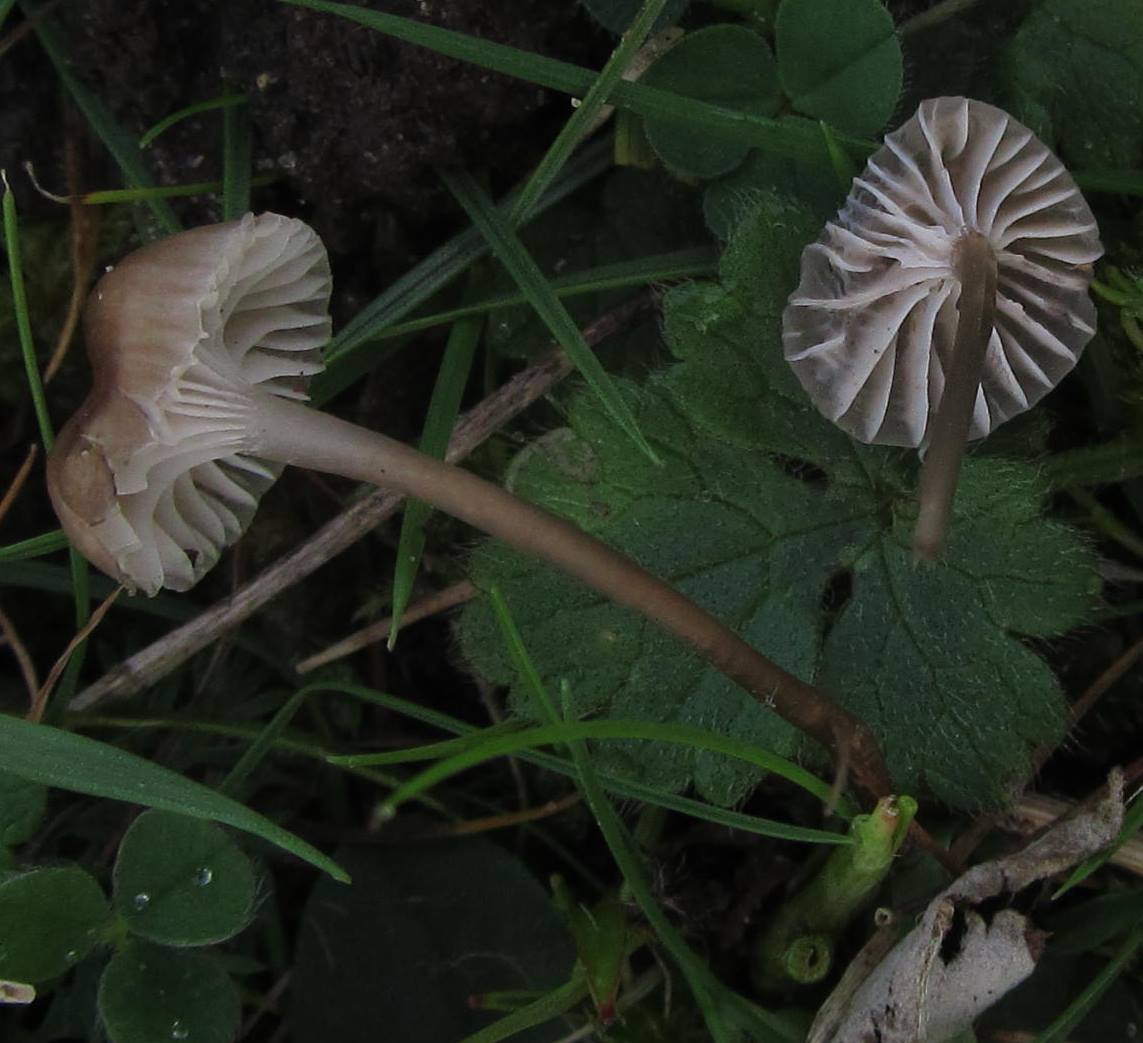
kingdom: Fungi
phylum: Basidiomycota
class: Agaricomycetes
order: Agaricales
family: Mycenaceae
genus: Mycena
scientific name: Mycena pseudopicta
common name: overdrevs-huesvamp
